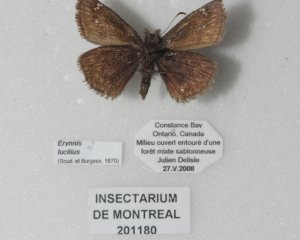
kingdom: Animalia
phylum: Arthropoda
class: Insecta
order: Lepidoptera
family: Hesperiidae
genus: Gesta
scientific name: Gesta
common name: Columbine Duskywing
